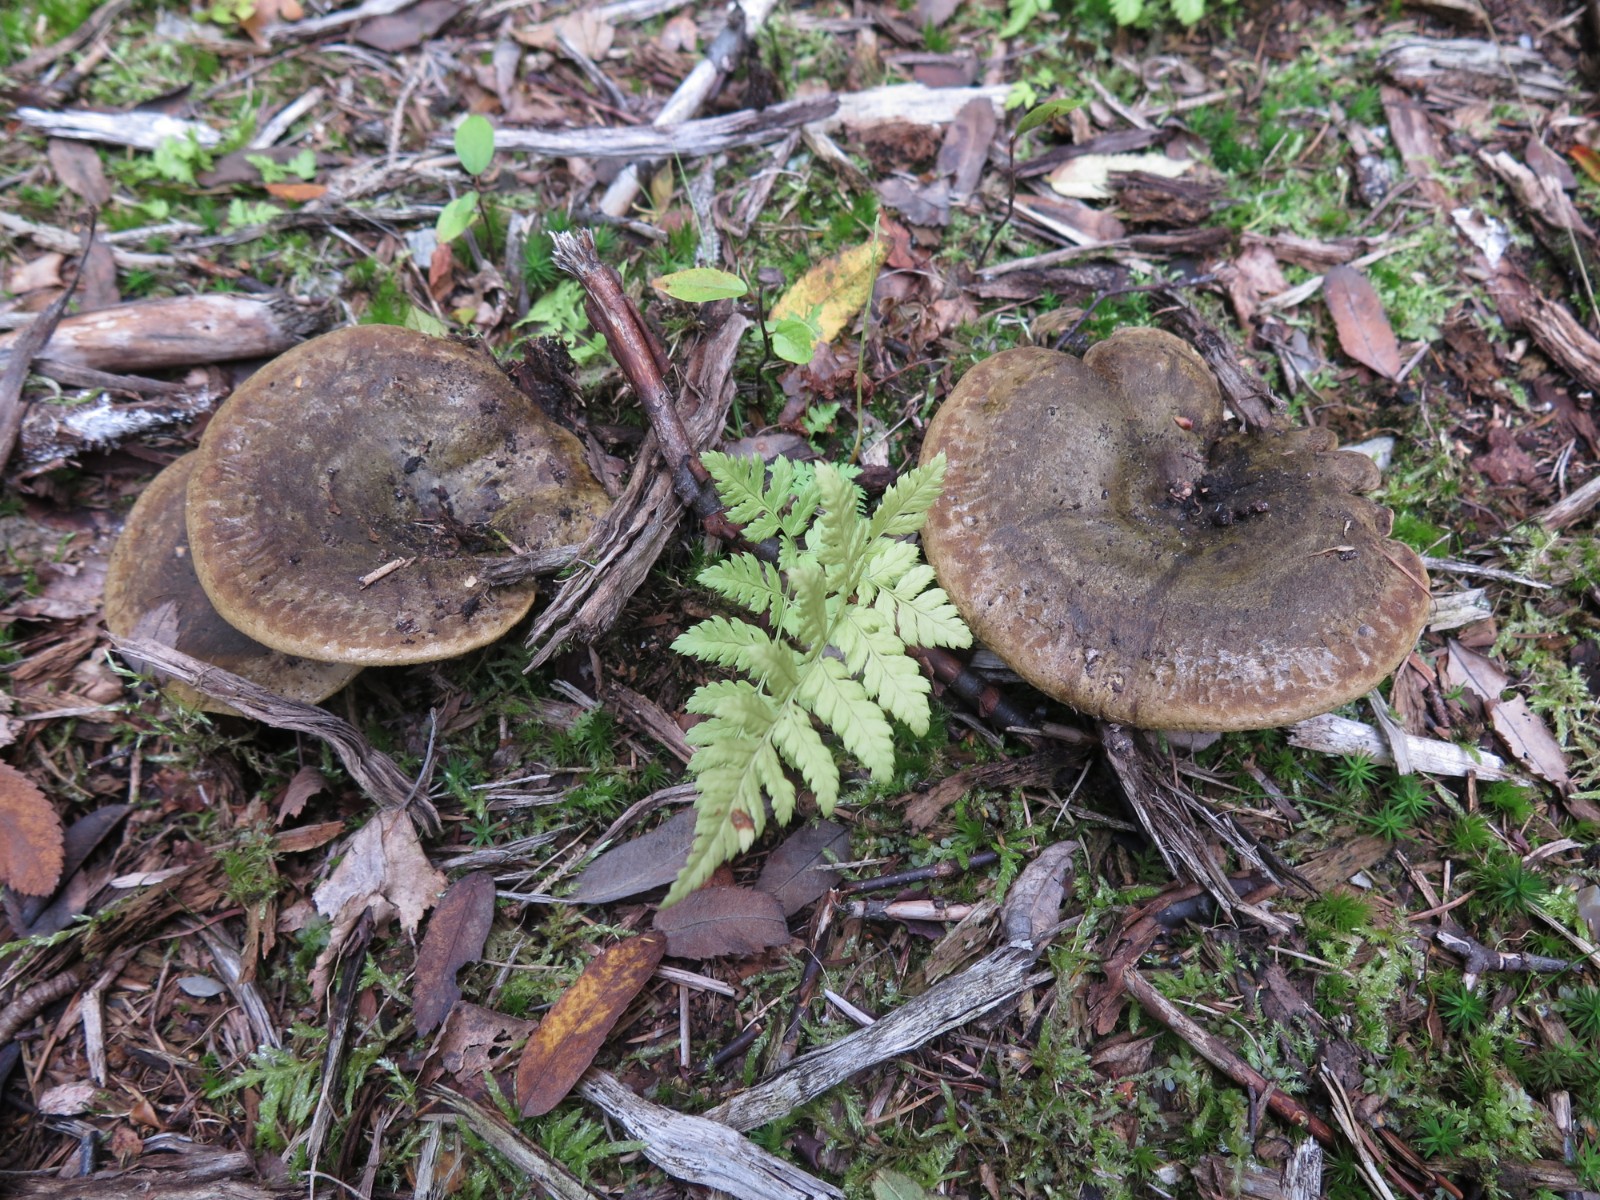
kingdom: Fungi
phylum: Basidiomycota
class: Agaricomycetes
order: Russulales
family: Russulaceae
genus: Lactarius
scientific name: Lactarius necator
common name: manddraber-mælkehat
